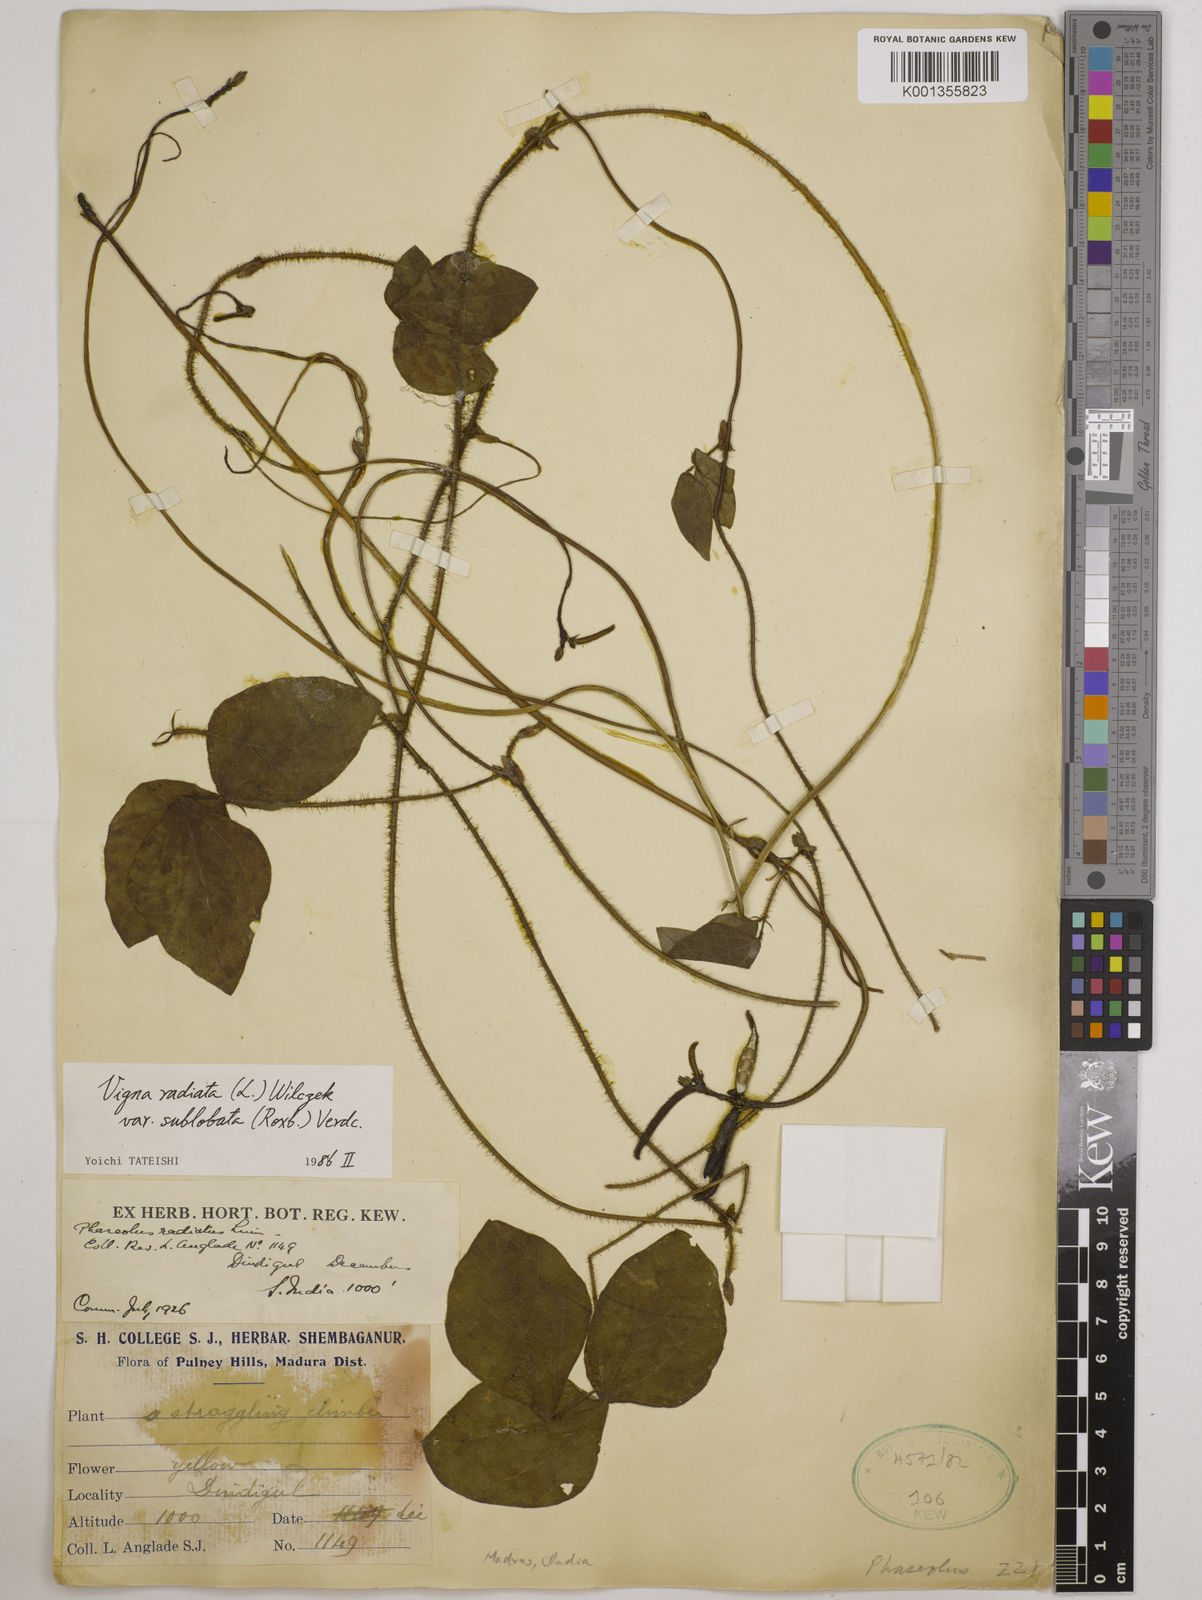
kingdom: Plantae
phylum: Tracheophyta
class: Magnoliopsida
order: Fabales
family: Fabaceae
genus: Vigna
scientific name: Vigna radiata
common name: Mung-bean
